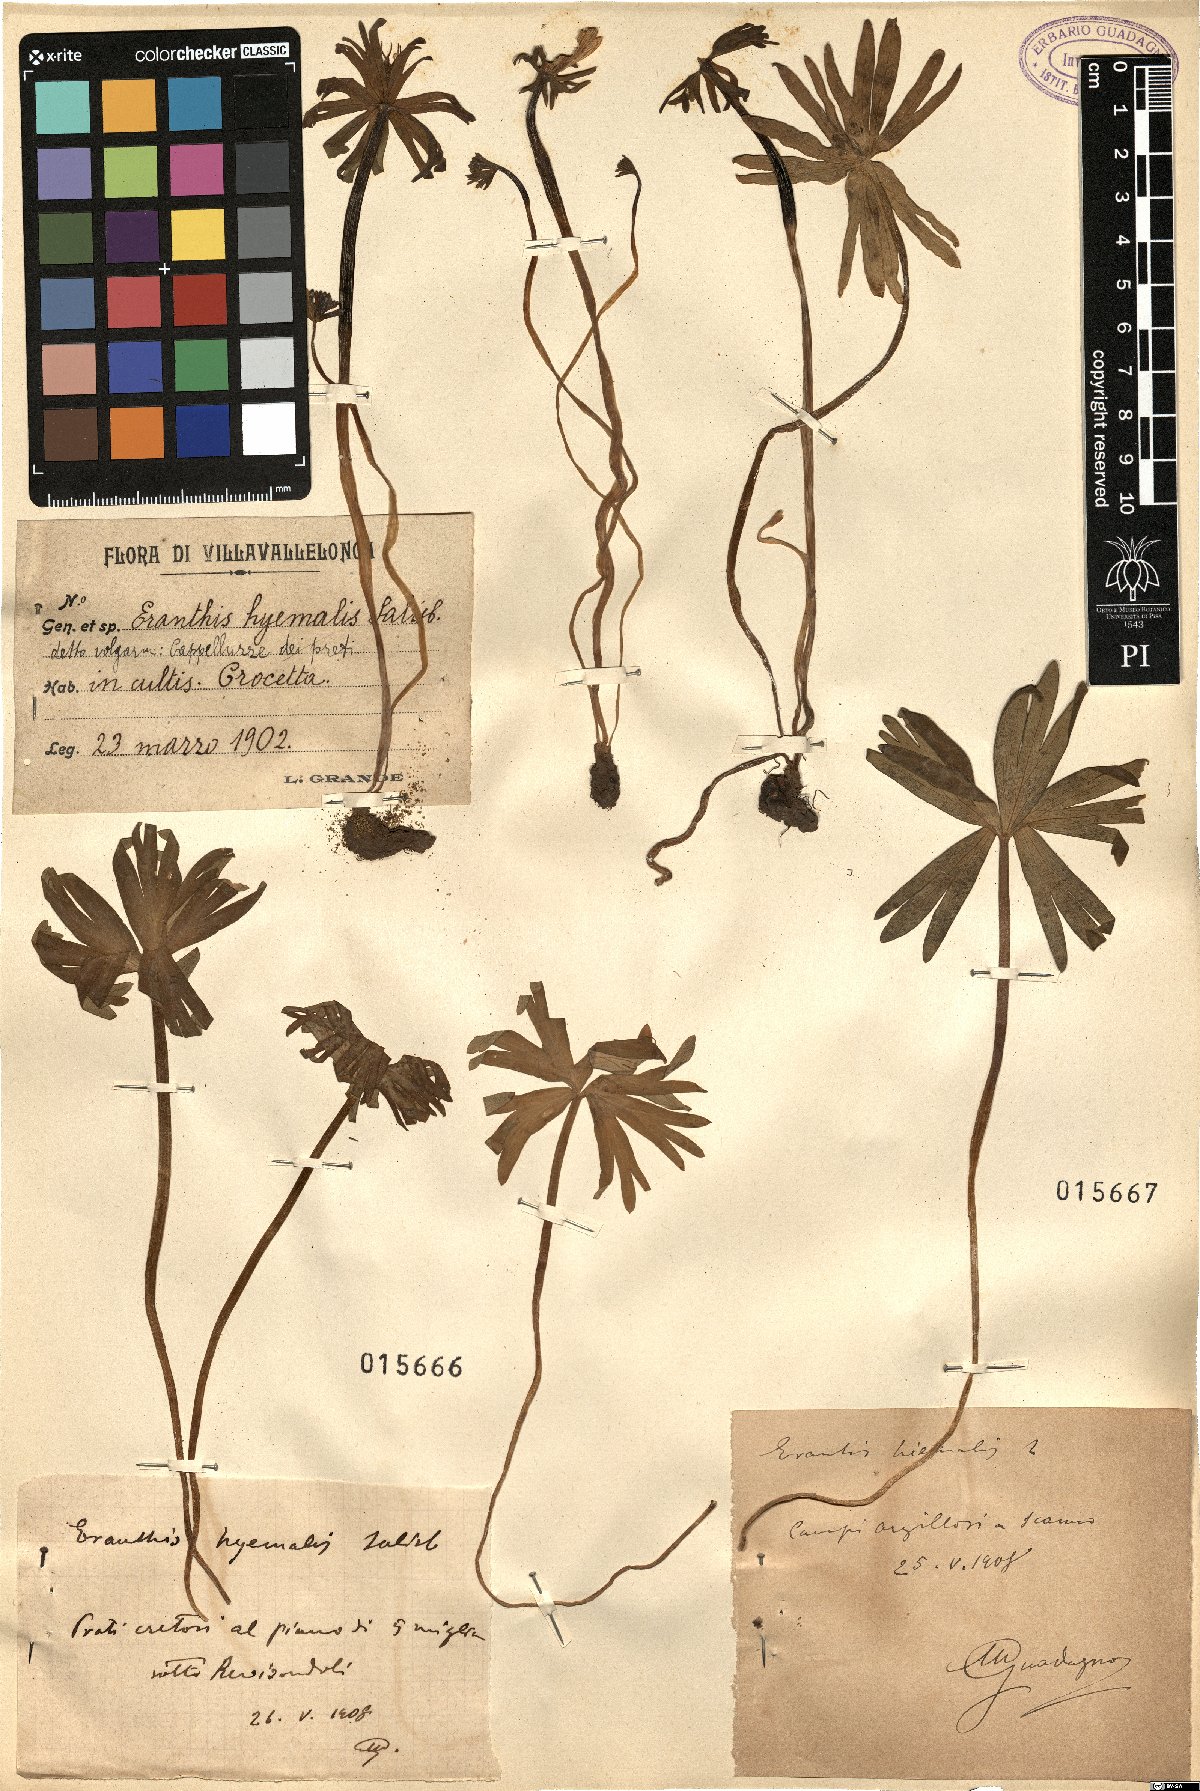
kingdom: Plantae
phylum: Tracheophyta
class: Magnoliopsida
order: Ranunculales
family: Ranunculaceae
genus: Eranthis
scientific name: Eranthis hyemalis
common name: Winter aconite
